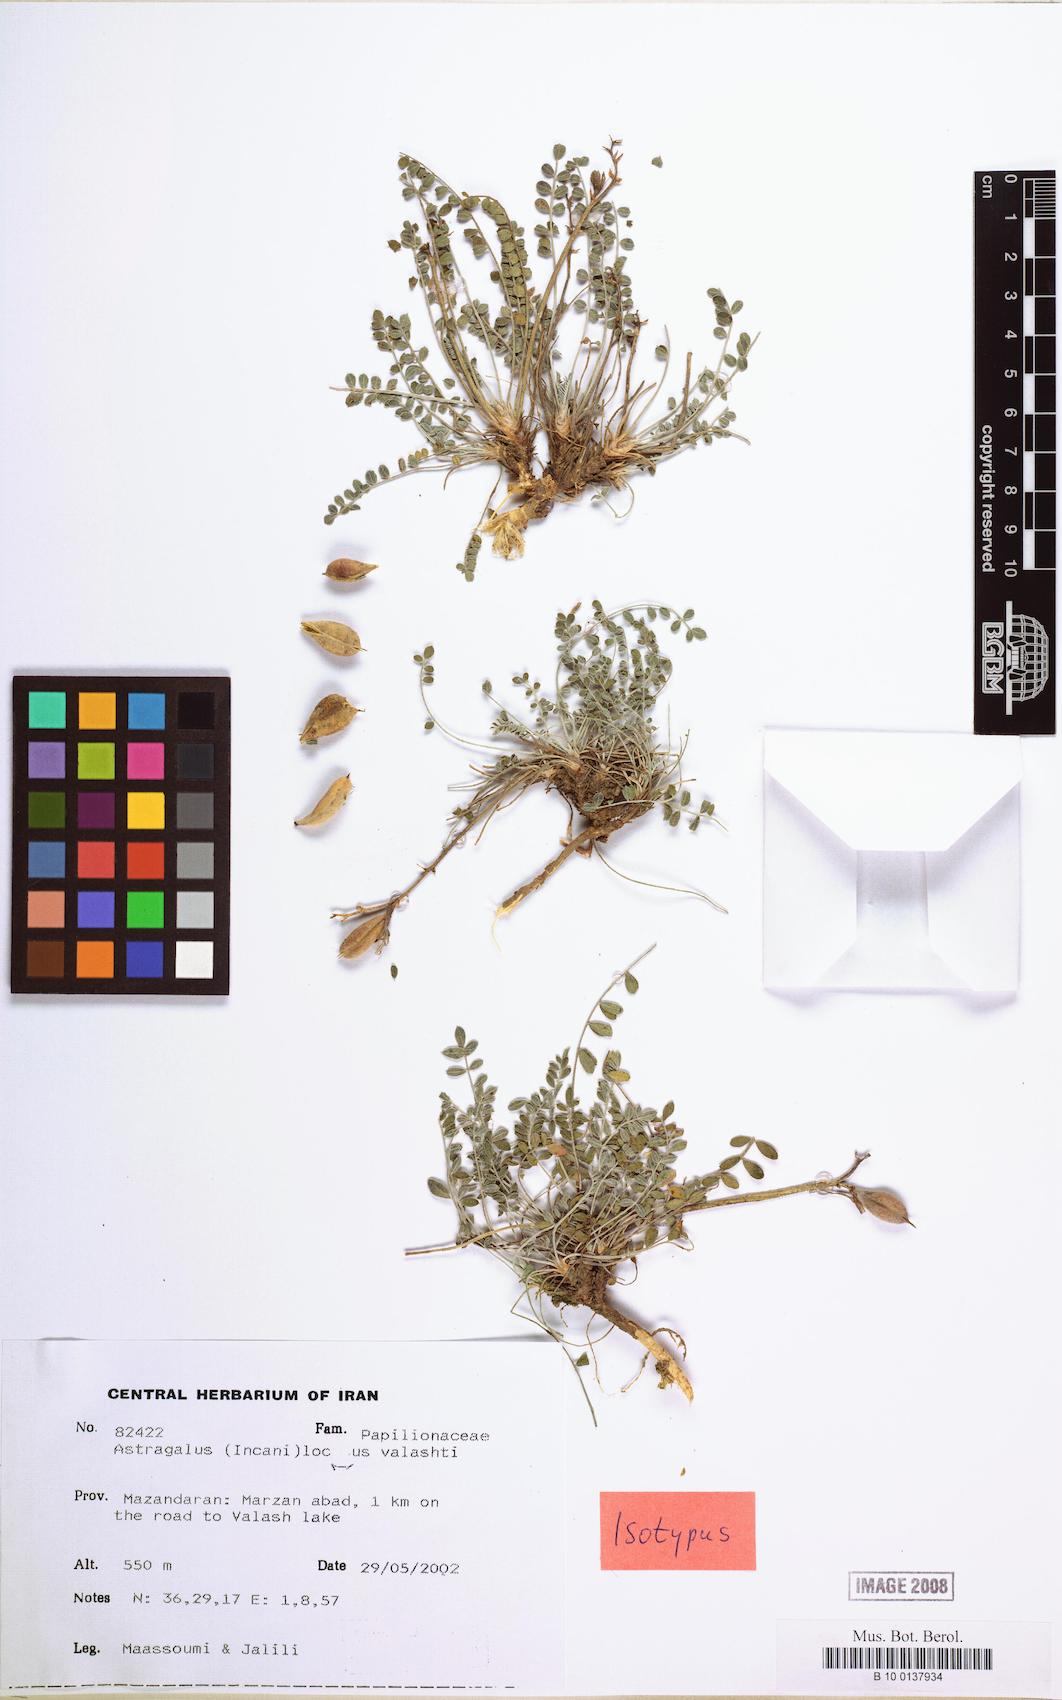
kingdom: Plantae
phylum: Tracheophyta
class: Magnoliopsida
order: Fabales
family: Fabaceae
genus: Astragalus
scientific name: Astragalus lacus-valashti
